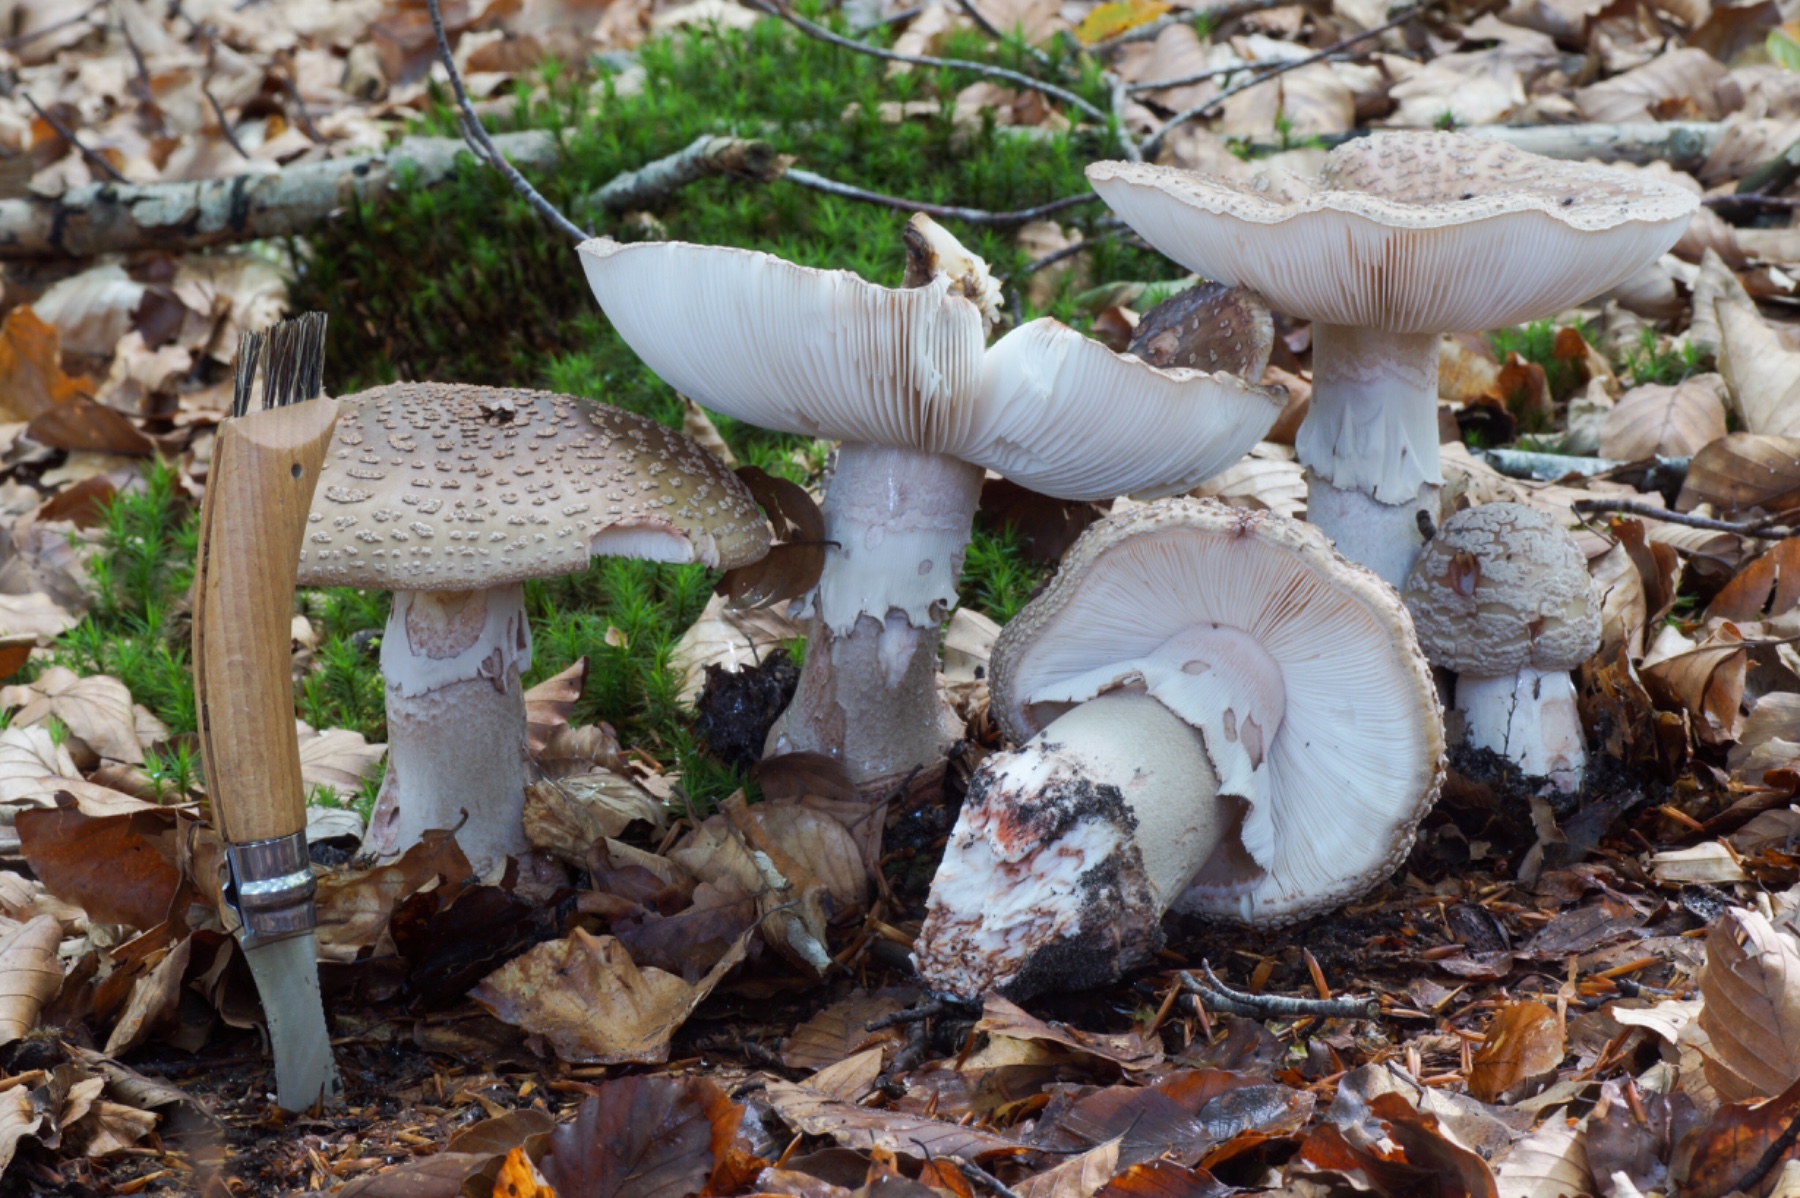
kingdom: Fungi
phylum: Basidiomycota
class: Agaricomycetes
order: Agaricales
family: Amanitaceae
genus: Amanita
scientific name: Amanita rubescens
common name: rødmende fluesvamp
